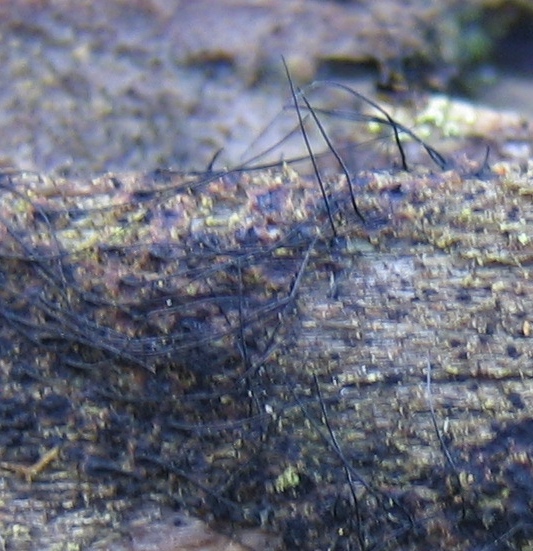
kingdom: Fungi
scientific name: Fungi
